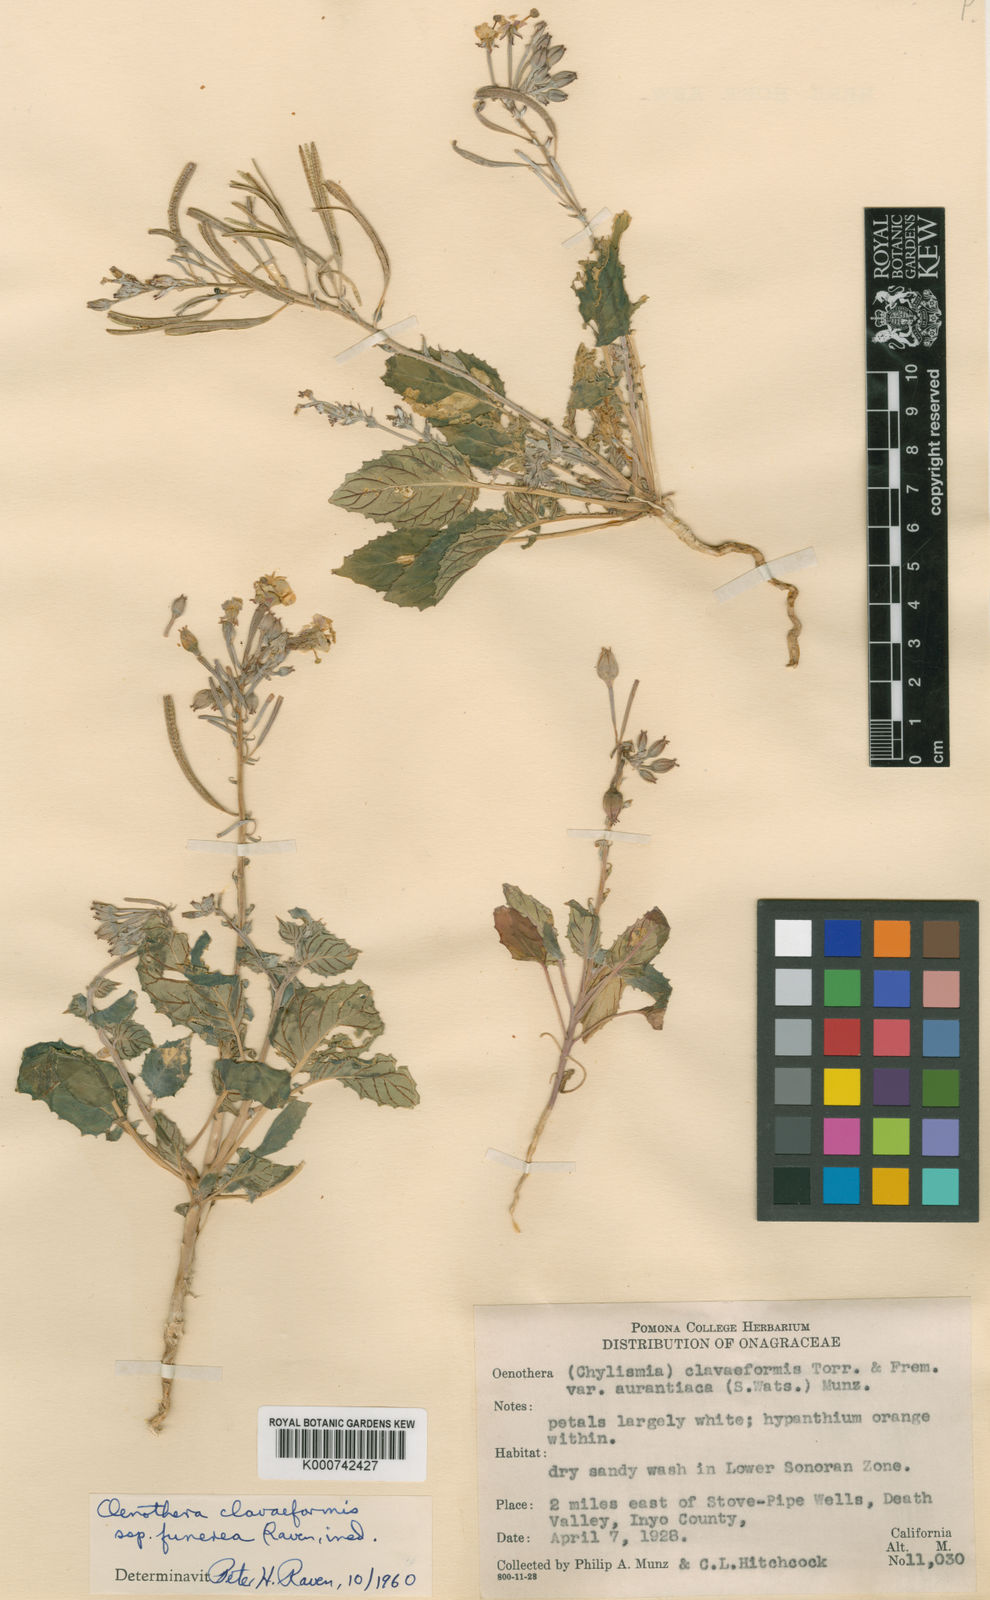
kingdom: Plantae
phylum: Tracheophyta
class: Magnoliopsida
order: Myrtales
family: Onagraceae
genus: Camissonia
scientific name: Camissonia
